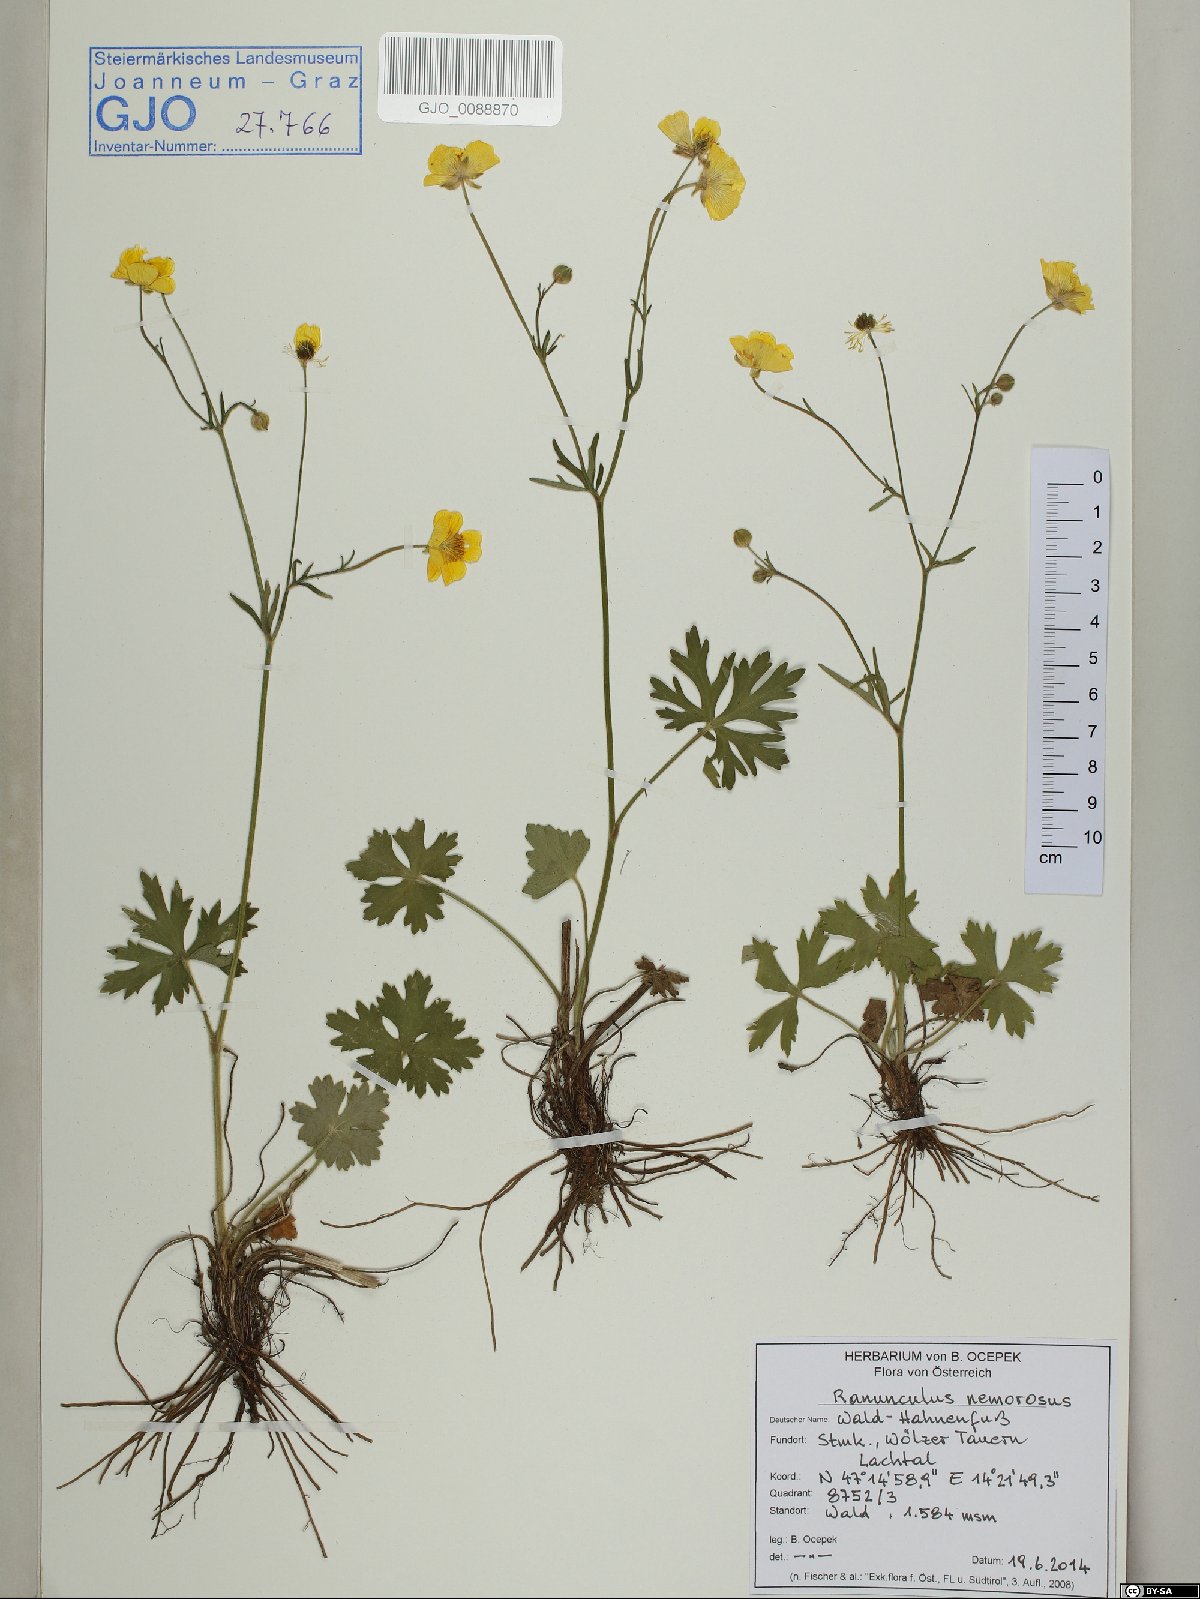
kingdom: Plantae
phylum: Tracheophyta
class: Magnoliopsida
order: Ranunculales
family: Ranunculaceae
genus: Ranunculus
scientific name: Ranunculus polyanthemos
